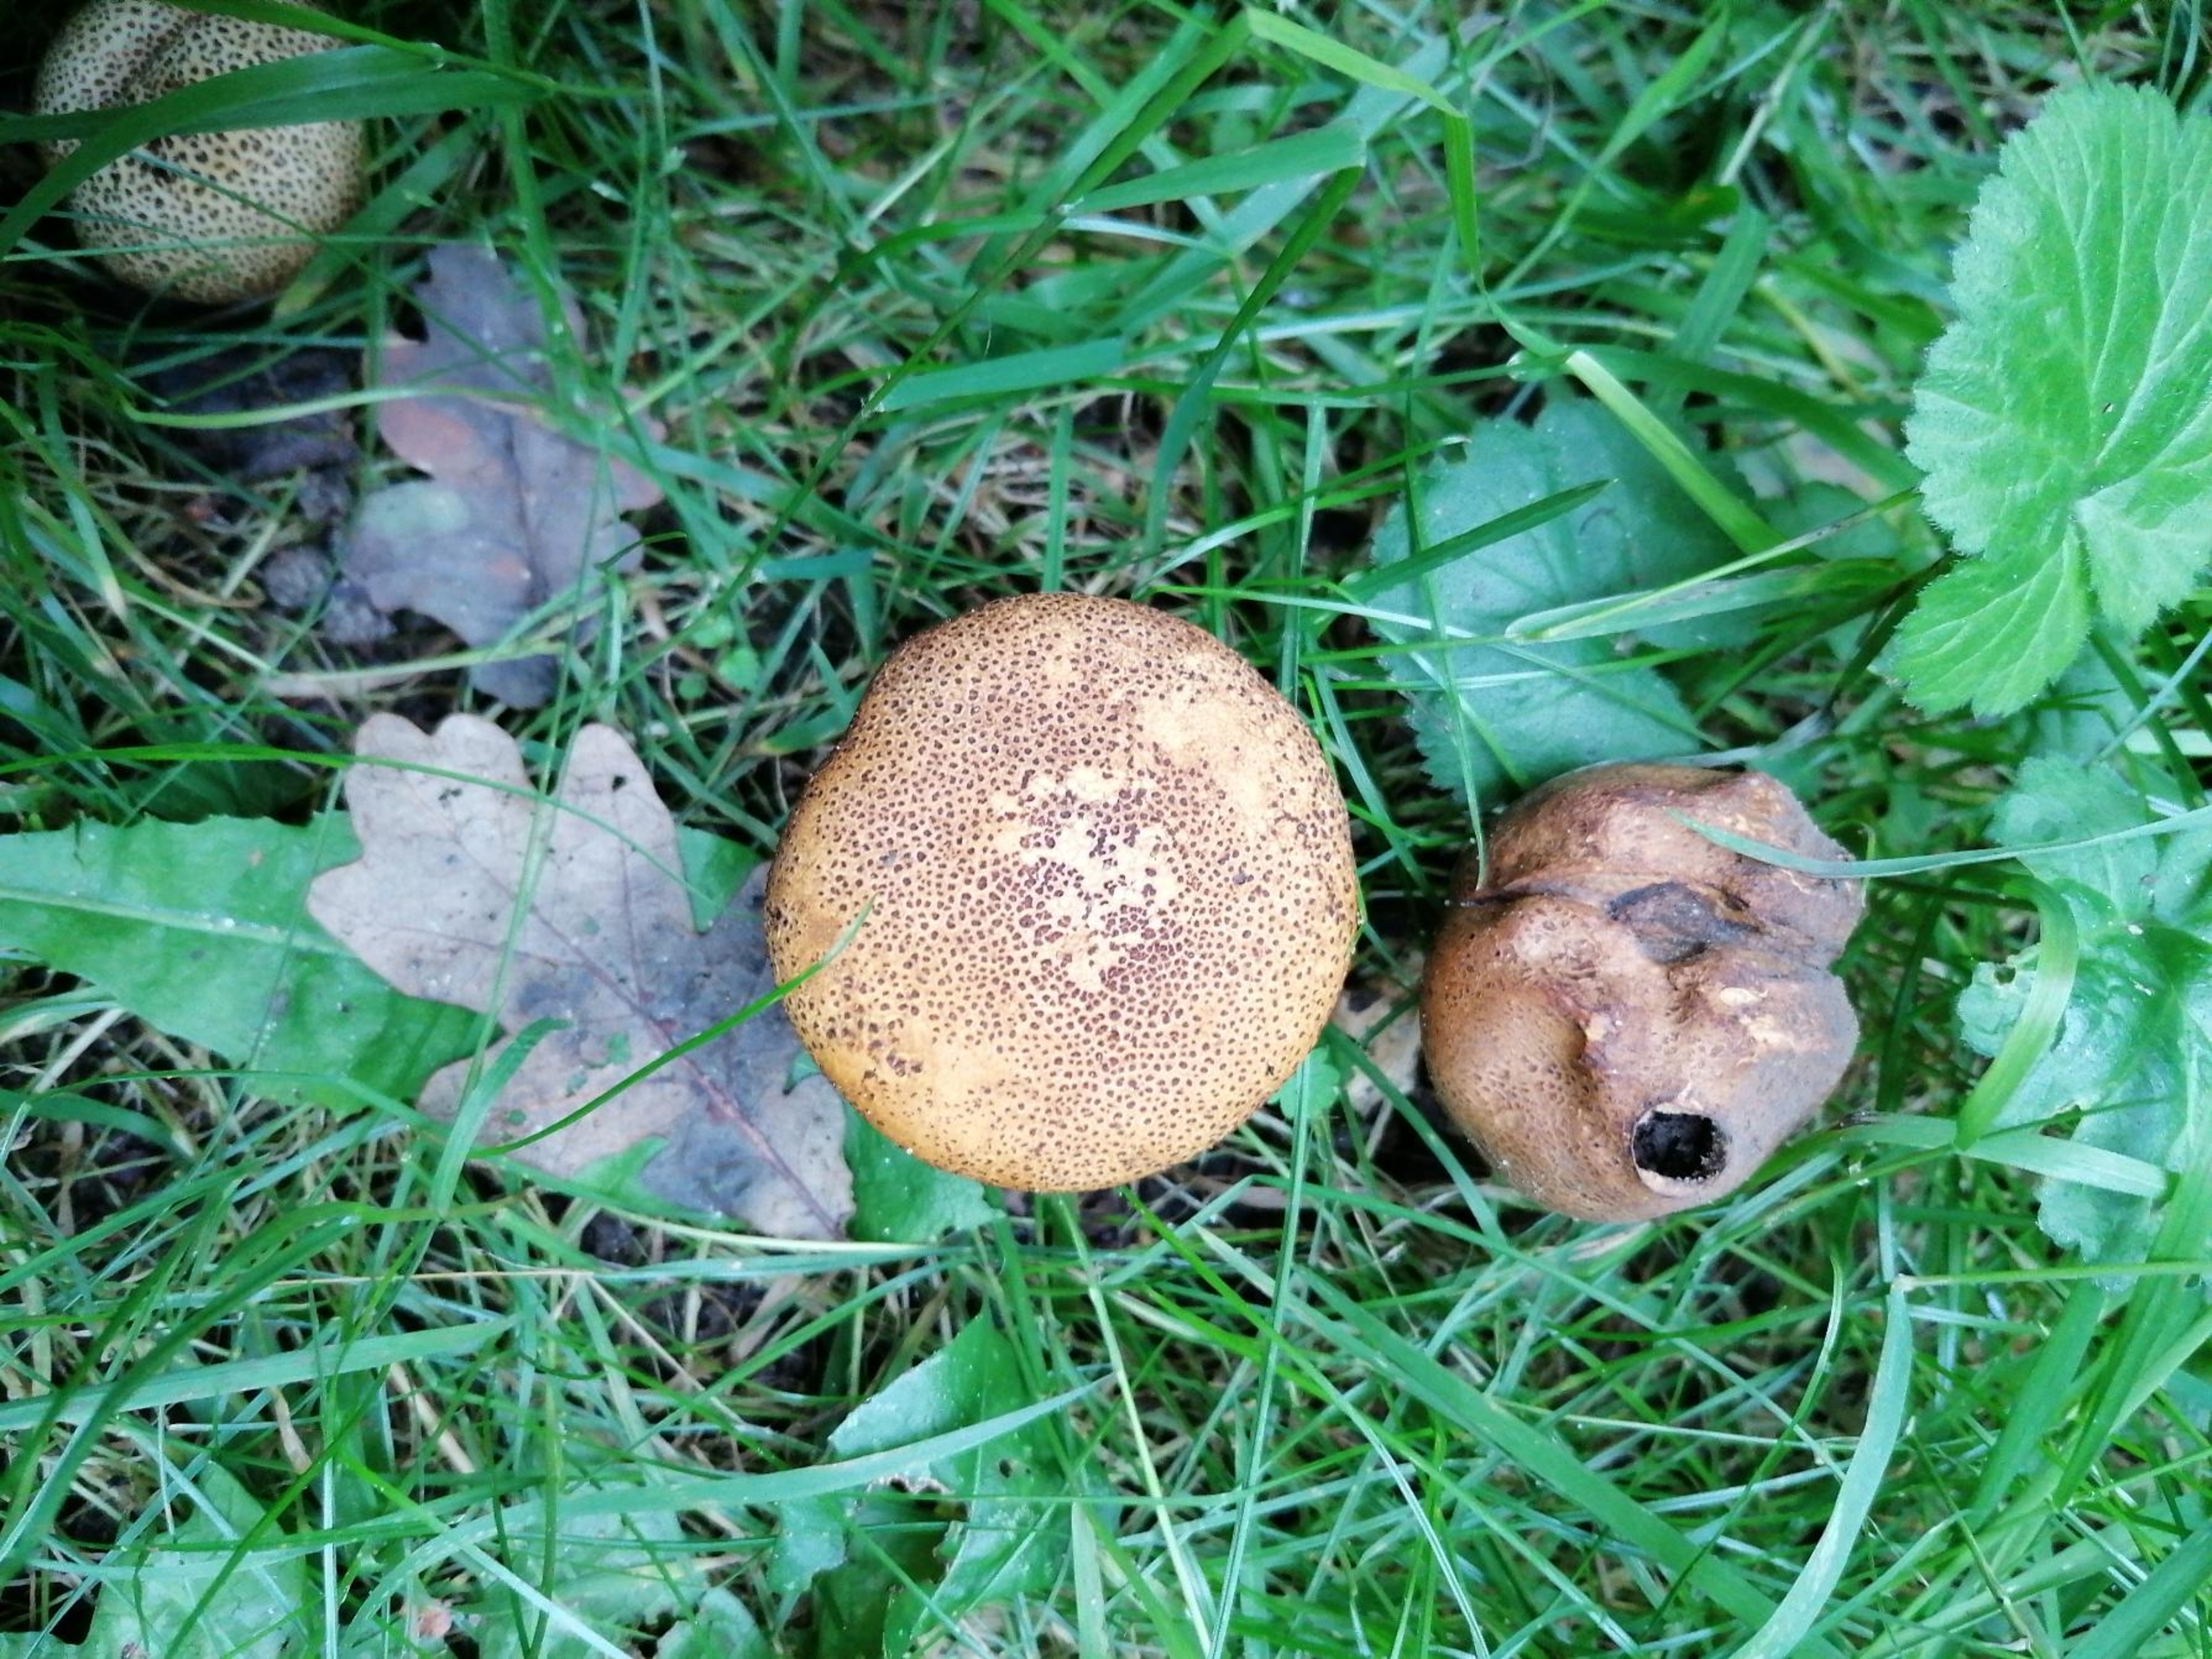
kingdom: Fungi
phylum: Basidiomycota
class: Agaricomycetes
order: Boletales
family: Sclerodermataceae
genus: Scleroderma
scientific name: Scleroderma verrucosum
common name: Stilket bruskbold
